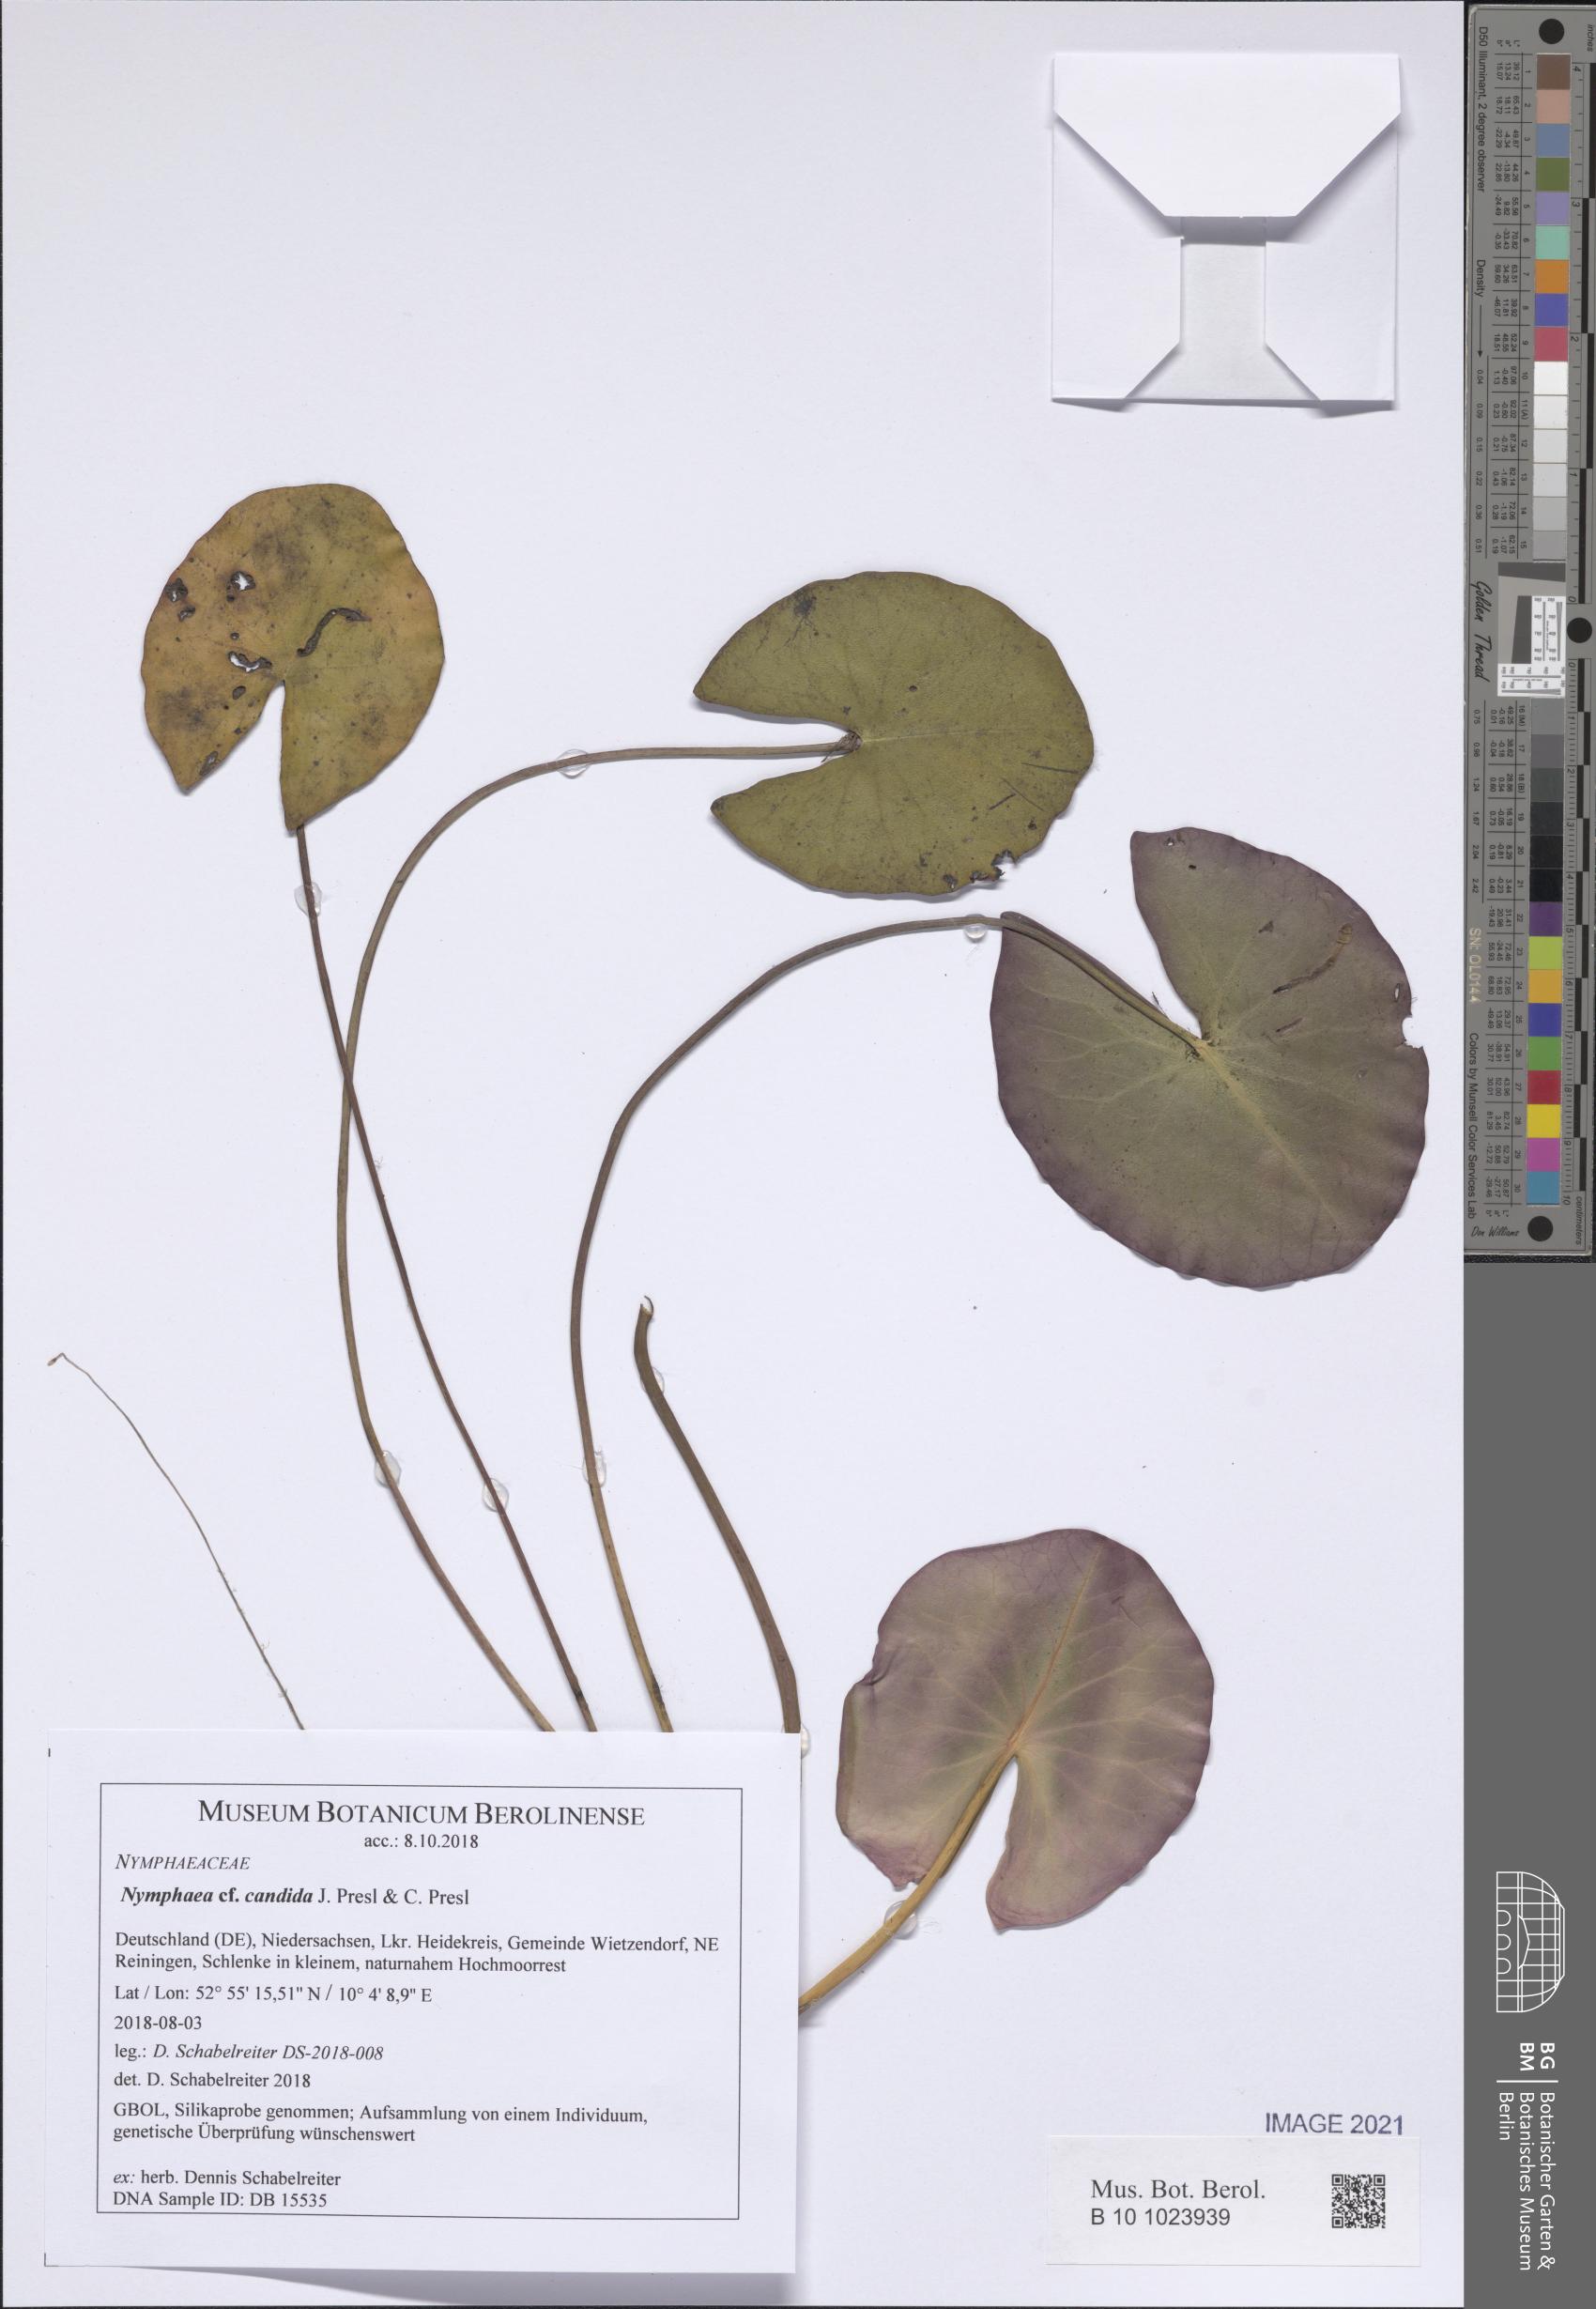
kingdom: Plantae
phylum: Tracheophyta
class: Magnoliopsida
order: Nymphaeales
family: Nymphaeaceae
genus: Nymphaea
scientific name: Nymphaea candida
